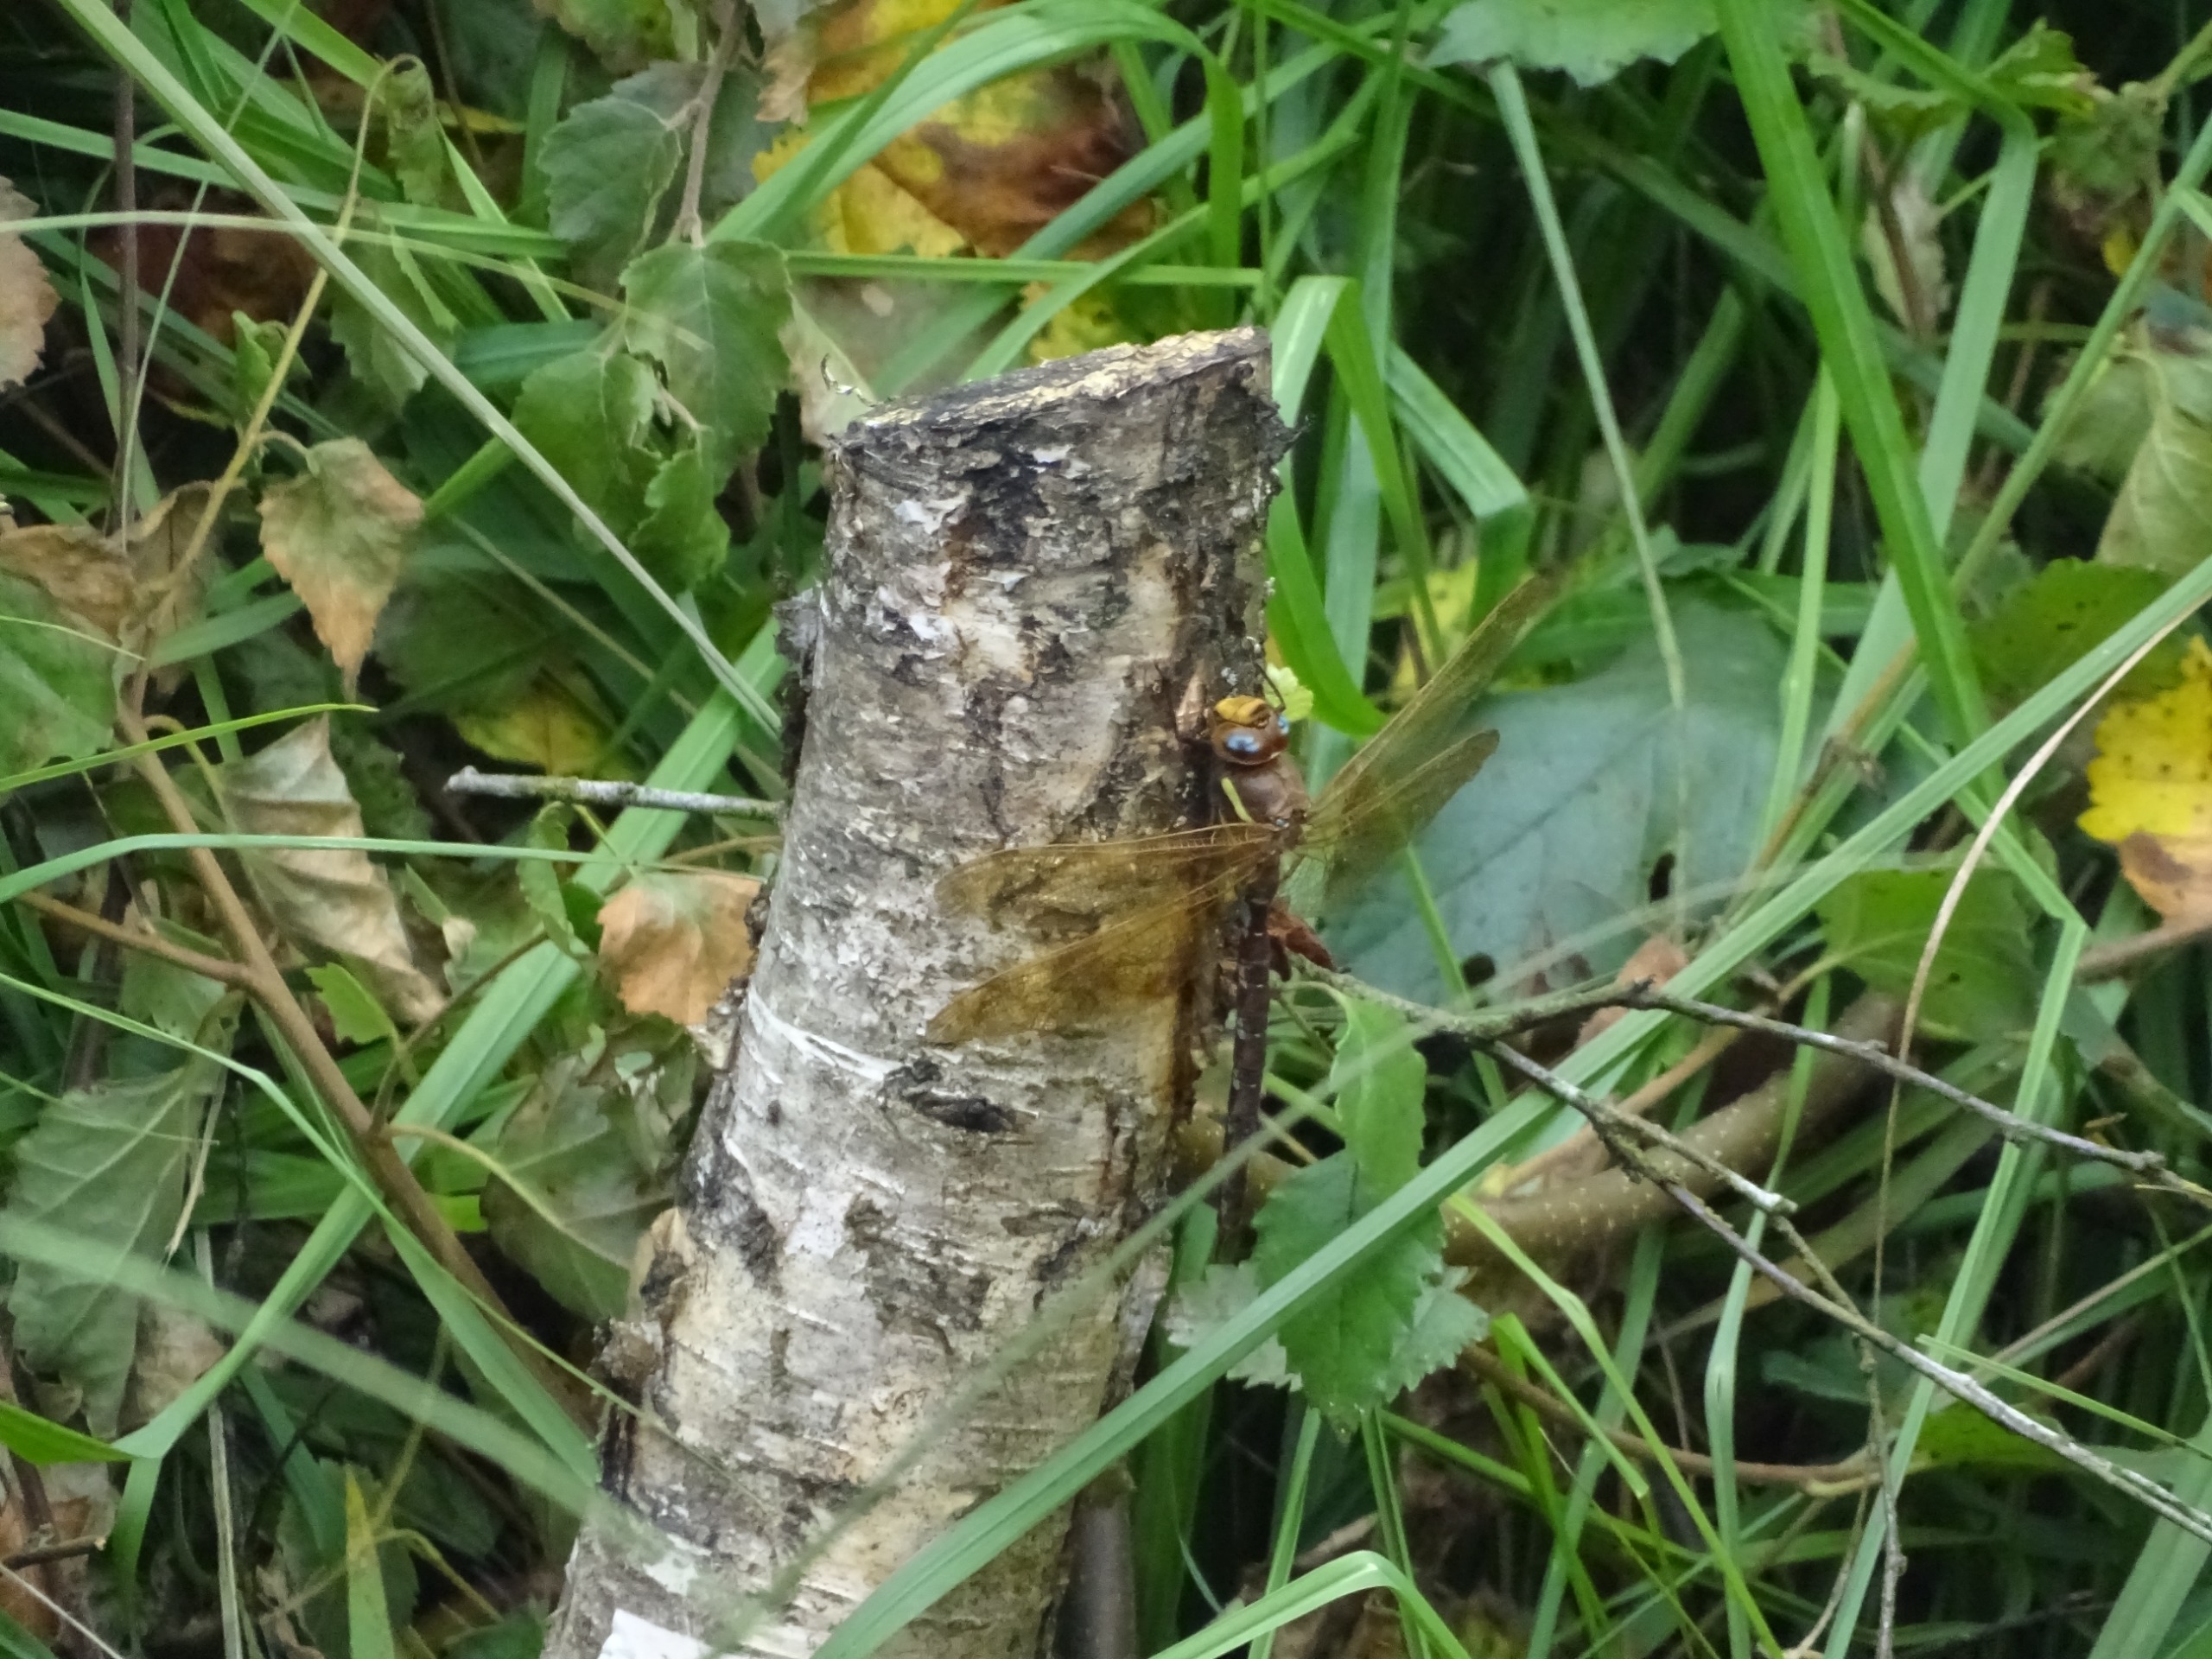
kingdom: Animalia
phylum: Arthropoda
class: Insecta
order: Odonata
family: Aeshnidae
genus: Aeshna
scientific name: Aeshna grandis
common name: Brun mosaikguldsmed
